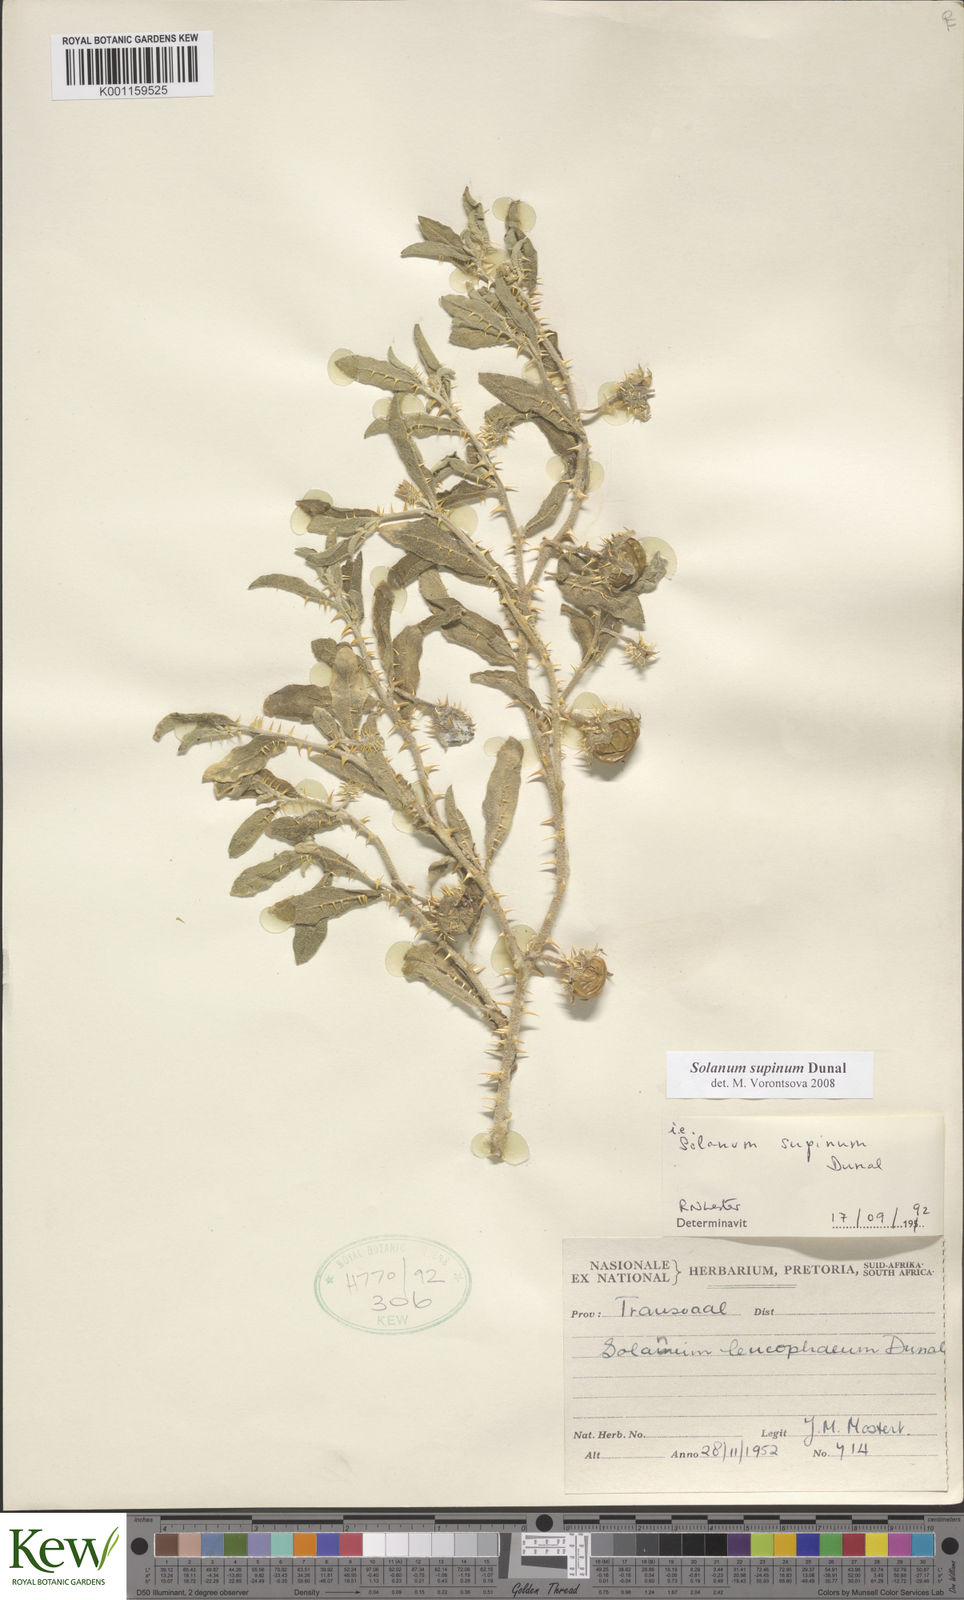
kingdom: Plantae
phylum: Tracheophyta
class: Magnoliopsida
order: Solanales
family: Solanaceae
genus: Solanum
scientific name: Solanum supinum
